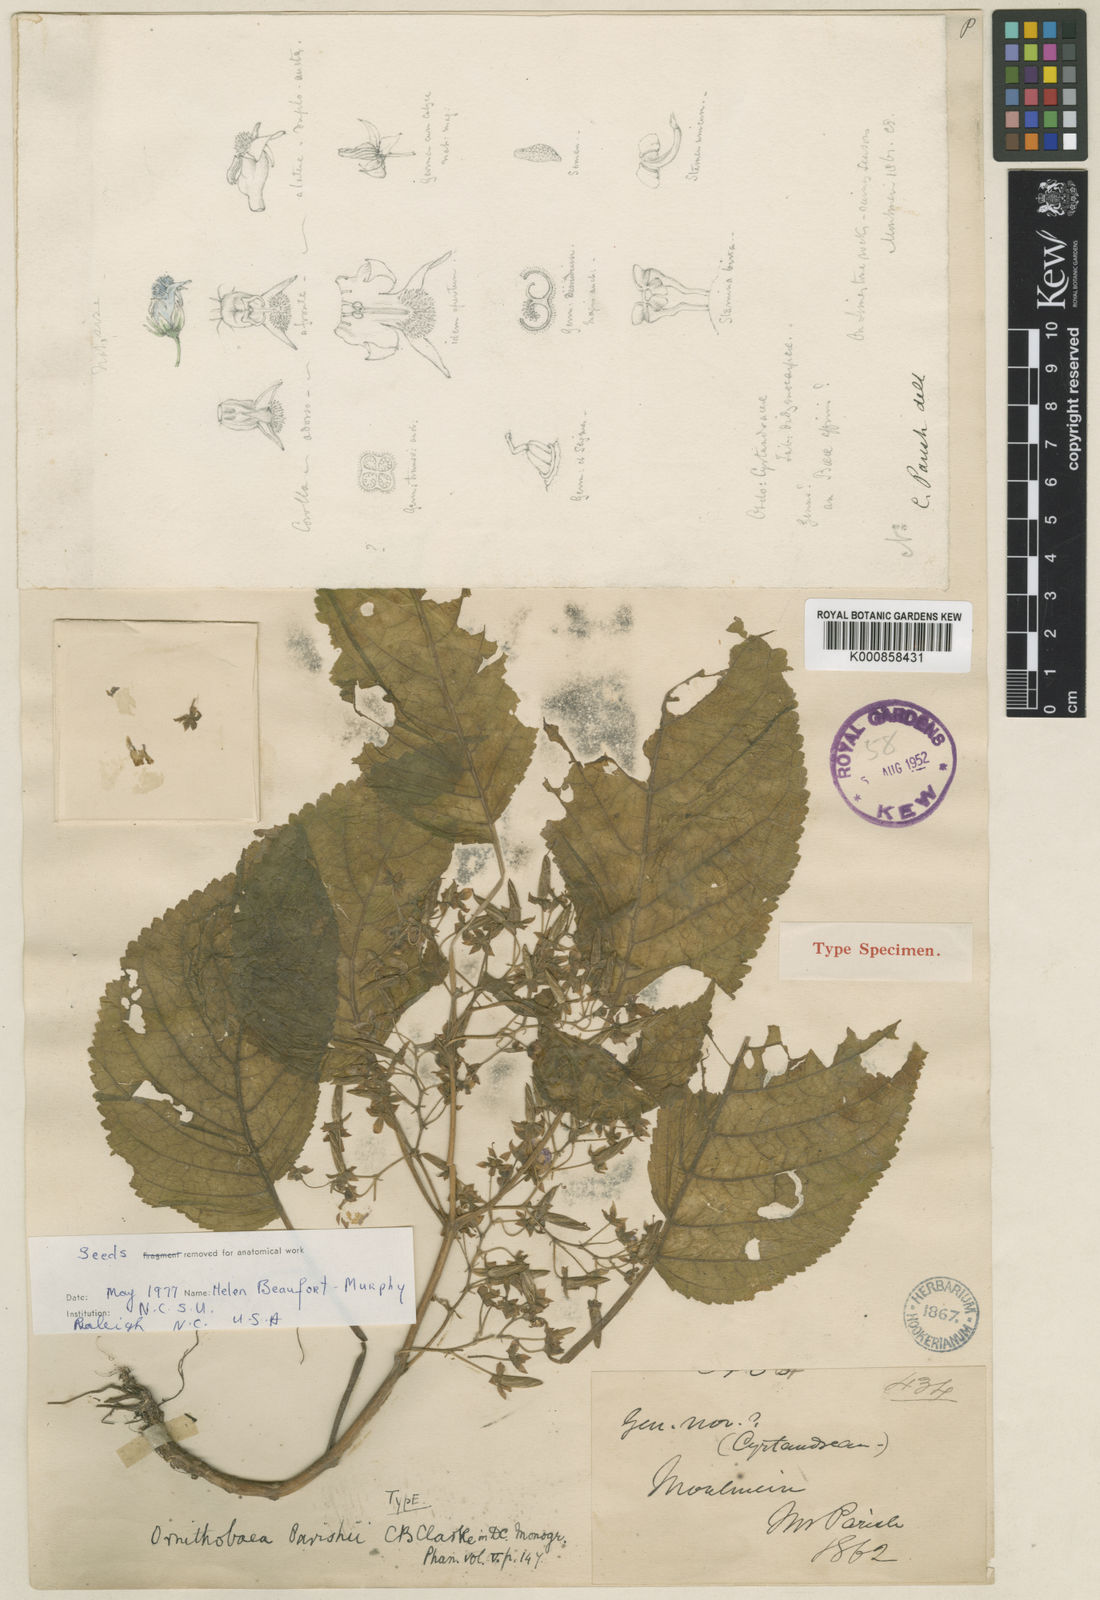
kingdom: Plantae
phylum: Tracheophyta
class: Magnoliopsida
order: Lamiales
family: Gesneriaceae
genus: Ornithoboea
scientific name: Ornithoboea parishii
